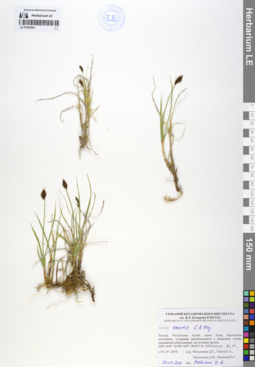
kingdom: Plantae
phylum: Tracheophyta
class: Liliopsida
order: Poales
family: Cyperaceae
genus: Carex
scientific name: Carex enervis
